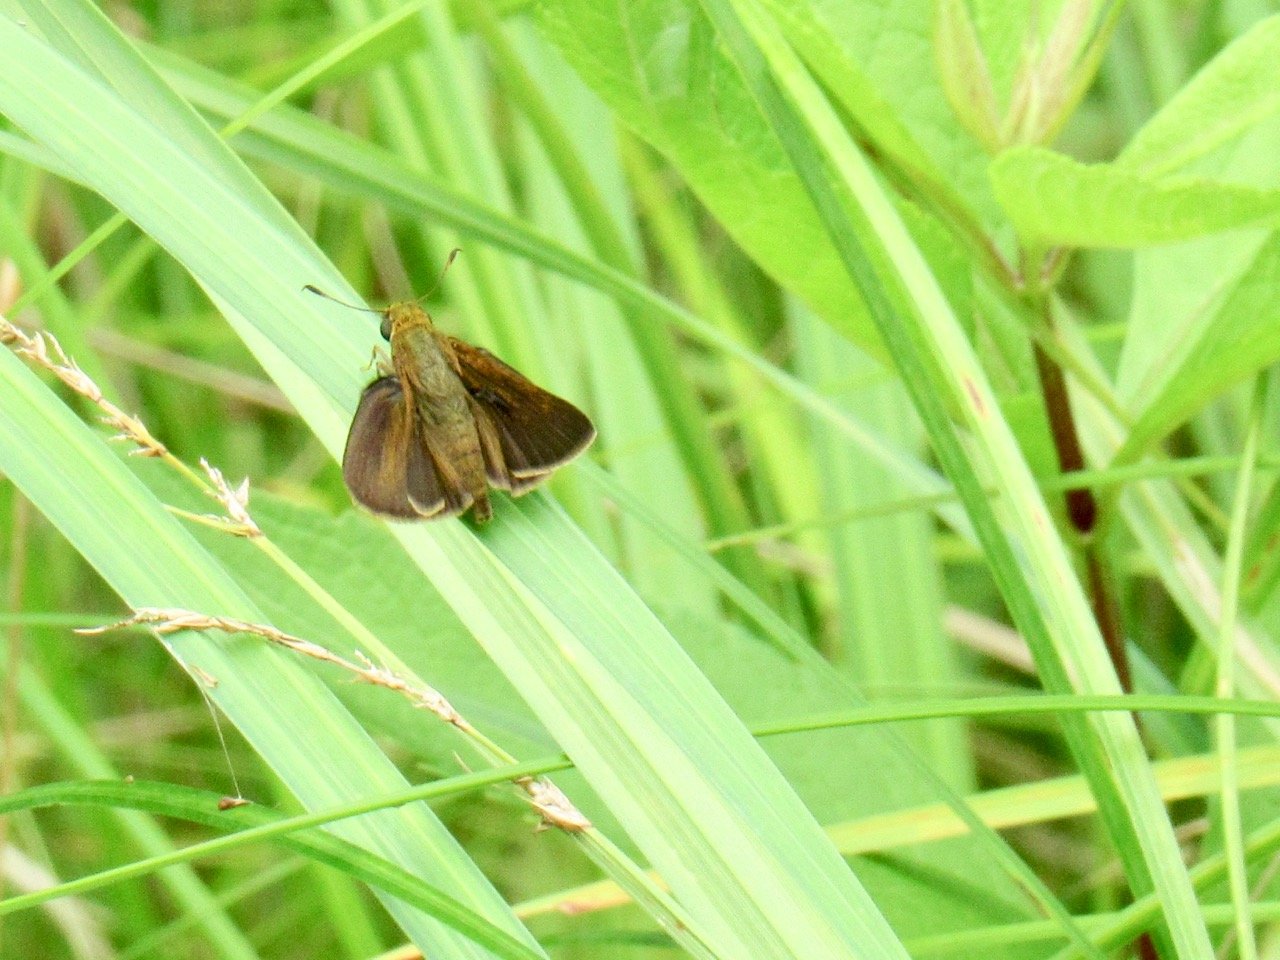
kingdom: Animalia
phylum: Arthropoda
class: Insecta
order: Lepidoptera
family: Hesperiidae
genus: Euphyes
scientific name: Euphyes vestris
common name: Dun Skipper
